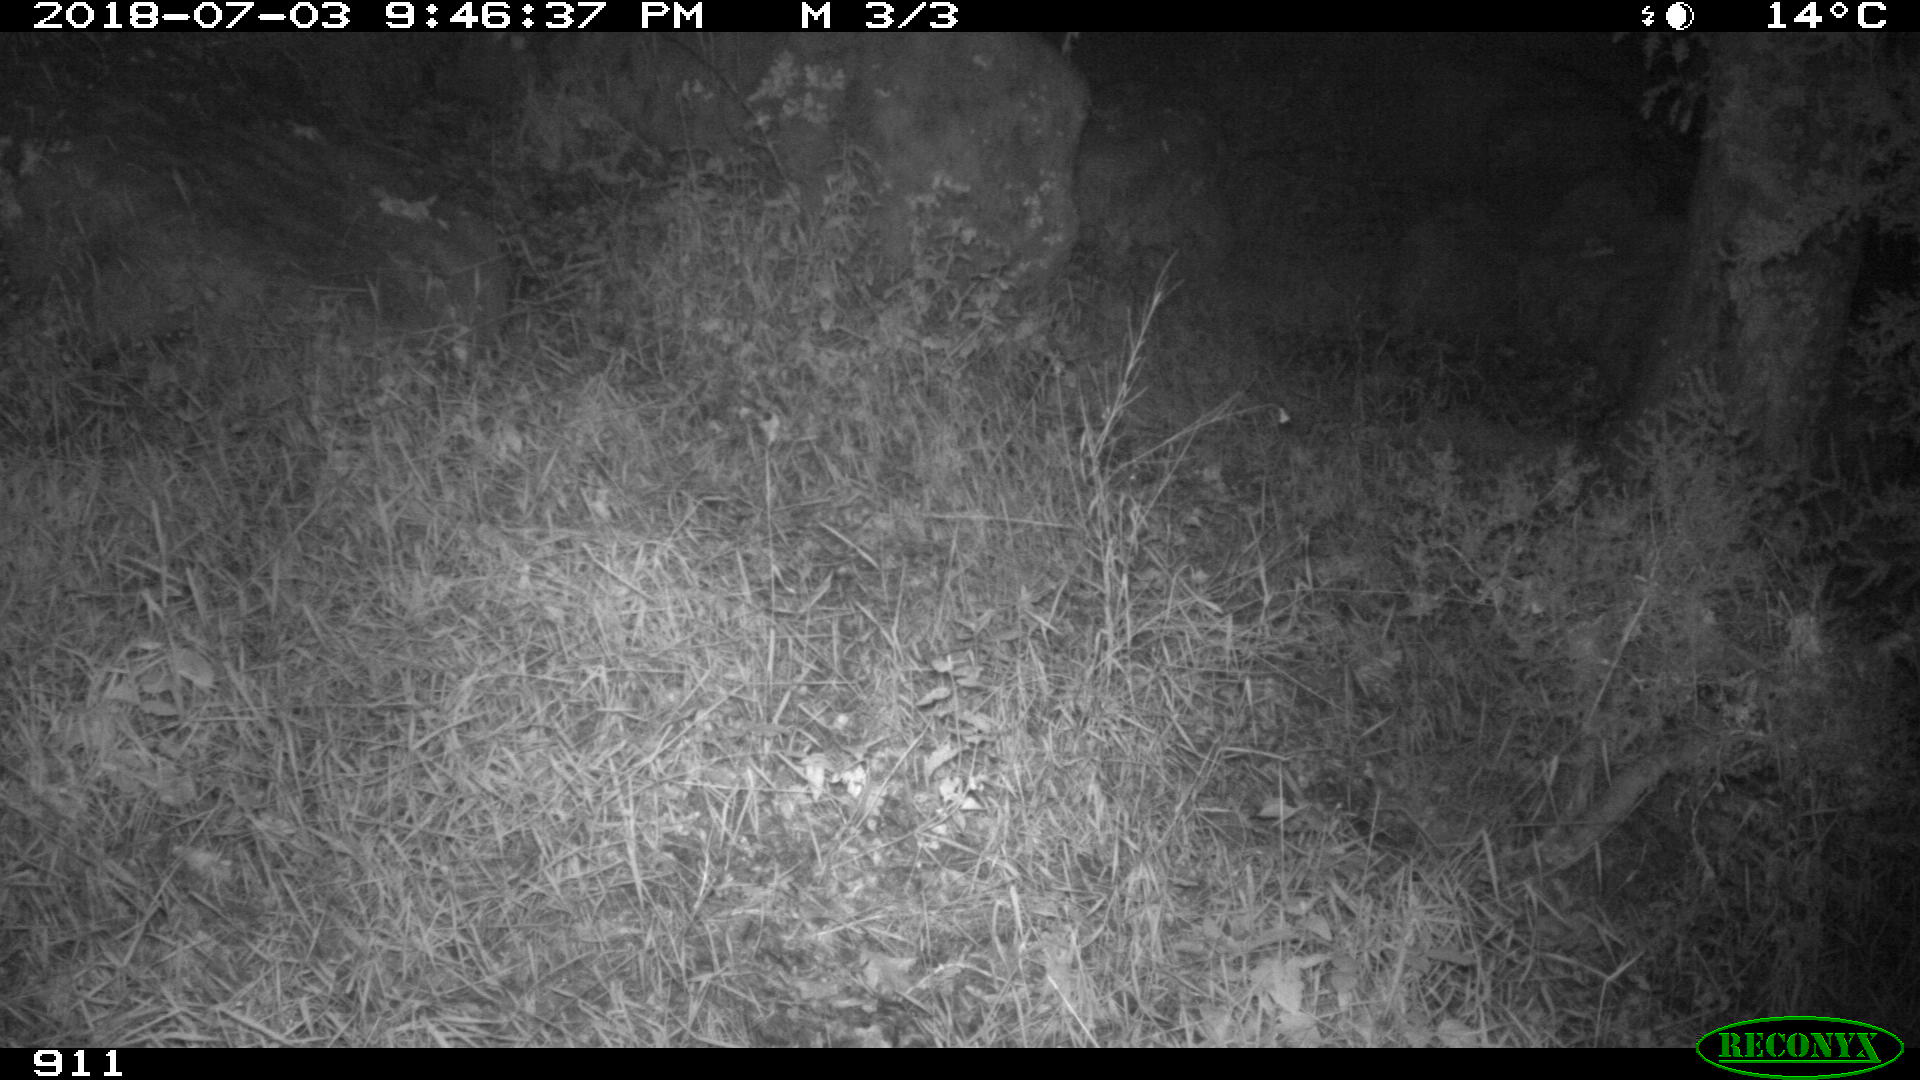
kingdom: Animalia
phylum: Chordata
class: Mammalia
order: Artiodactyla
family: Cervidae
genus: Capreolus
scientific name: Capreolus capreolus
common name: Western roe deer
